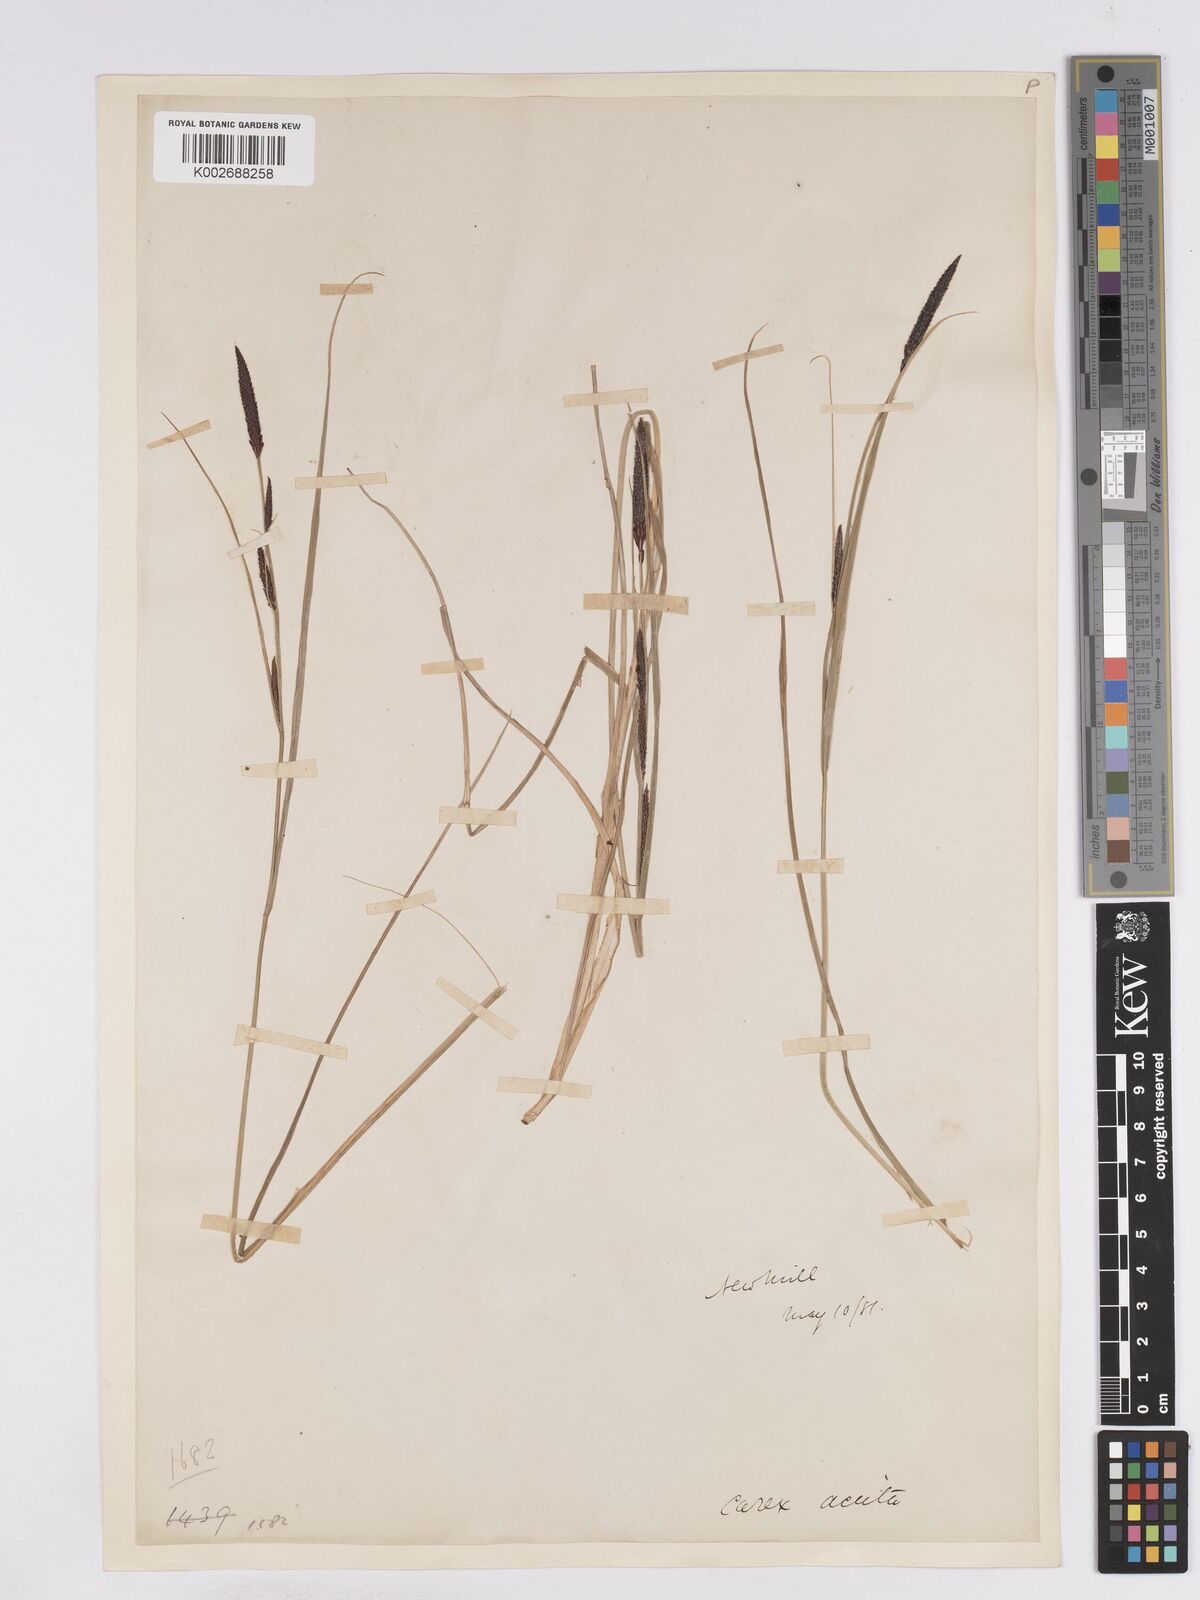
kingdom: Plantae
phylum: Tracheophyta
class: Liliopsida
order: Poales
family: Cyperaceae
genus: Carex
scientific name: Carex elata
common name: Tufted sedge
